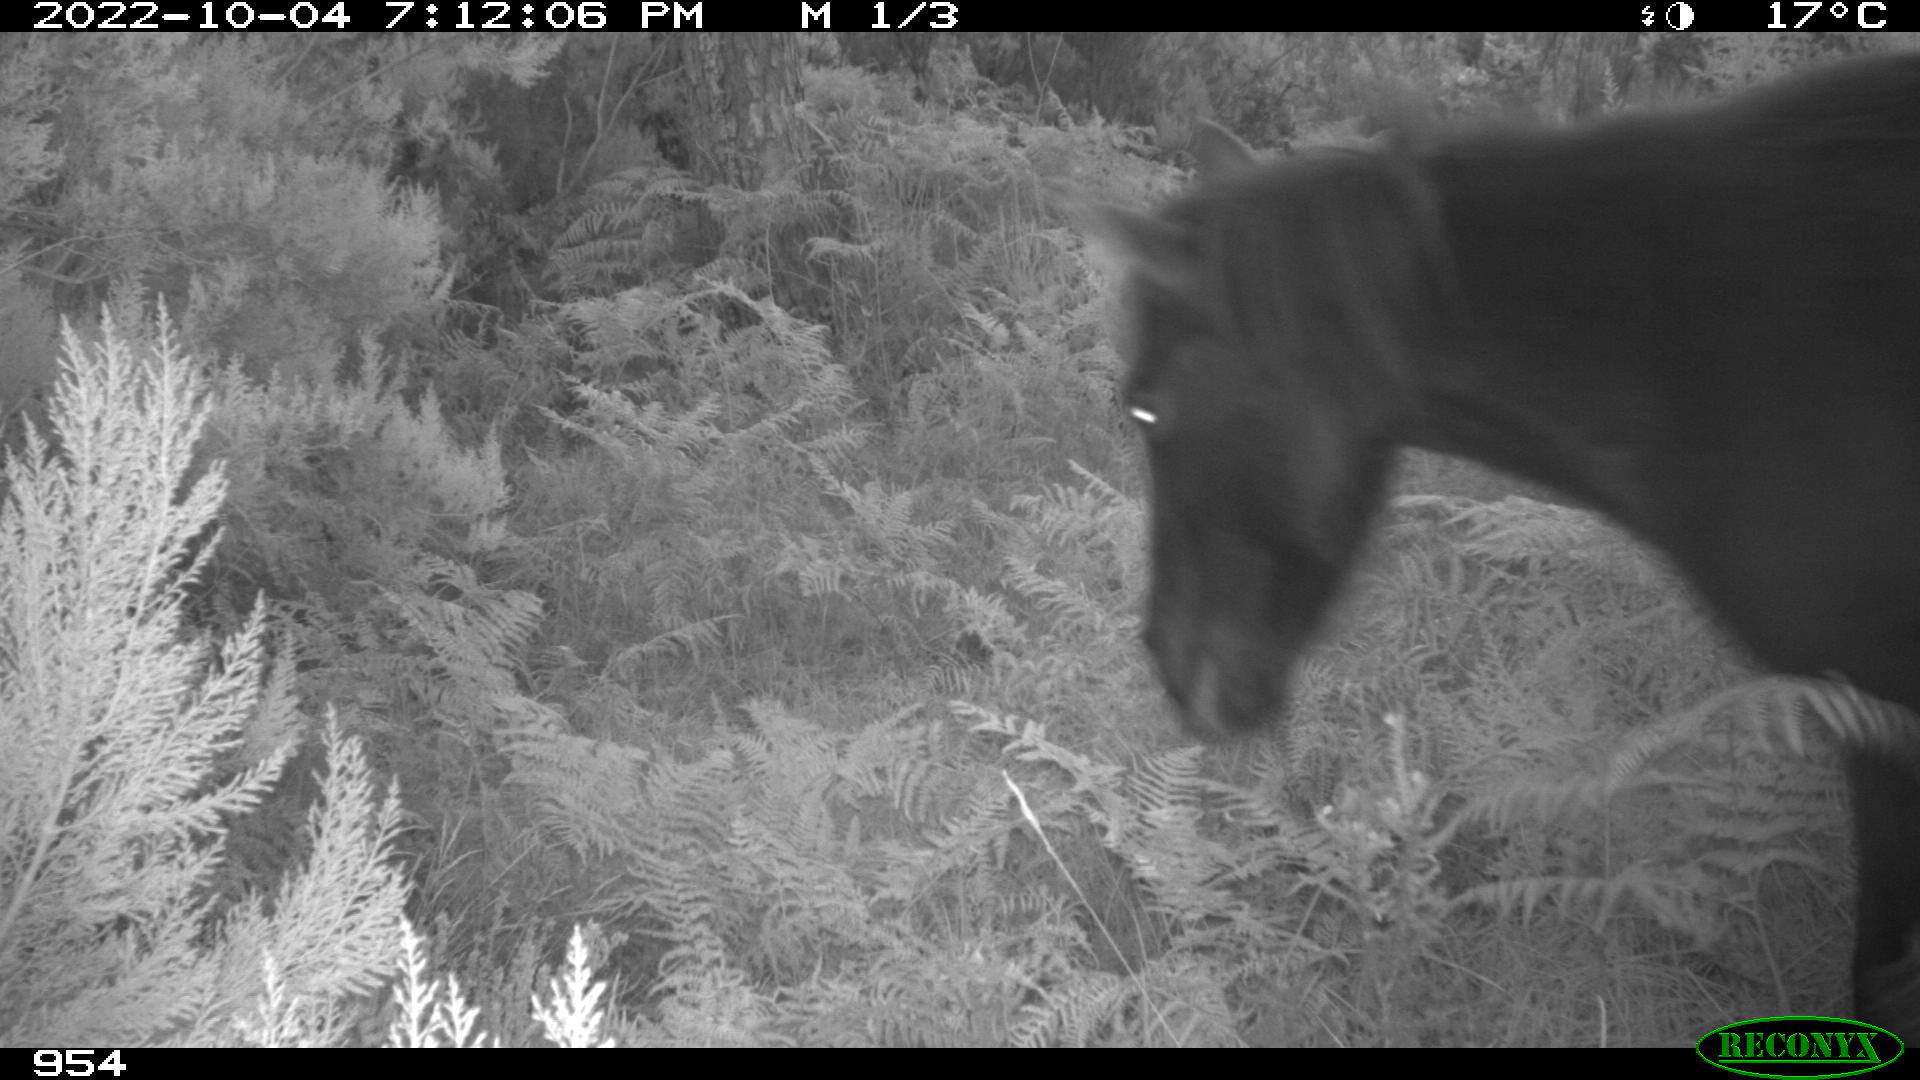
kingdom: Animalia
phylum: Chordata
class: Mammalia
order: Perissodactyla
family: Equidae
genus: Equus
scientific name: Equus caballus
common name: Horse
